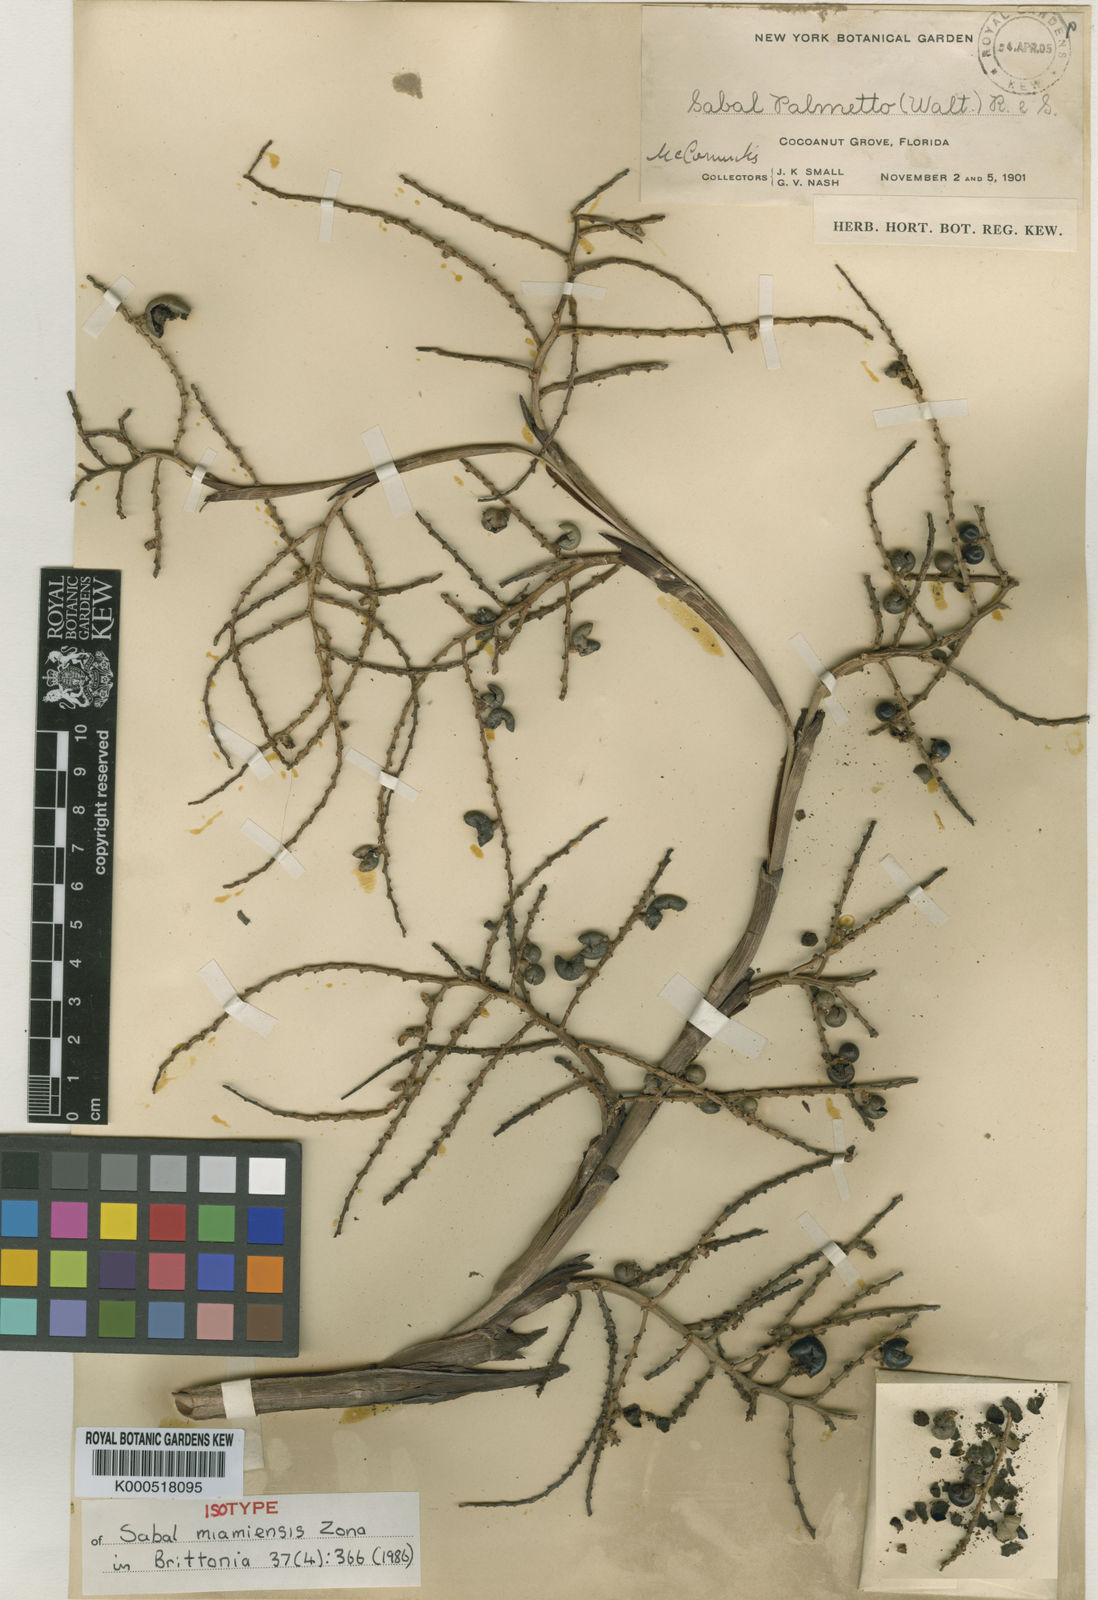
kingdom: Plantae
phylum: Tracheophyta
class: Liliopsida
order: Arecales
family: Arecaceae
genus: Sabal
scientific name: Sabal etonia
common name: Dwarf palmetto
